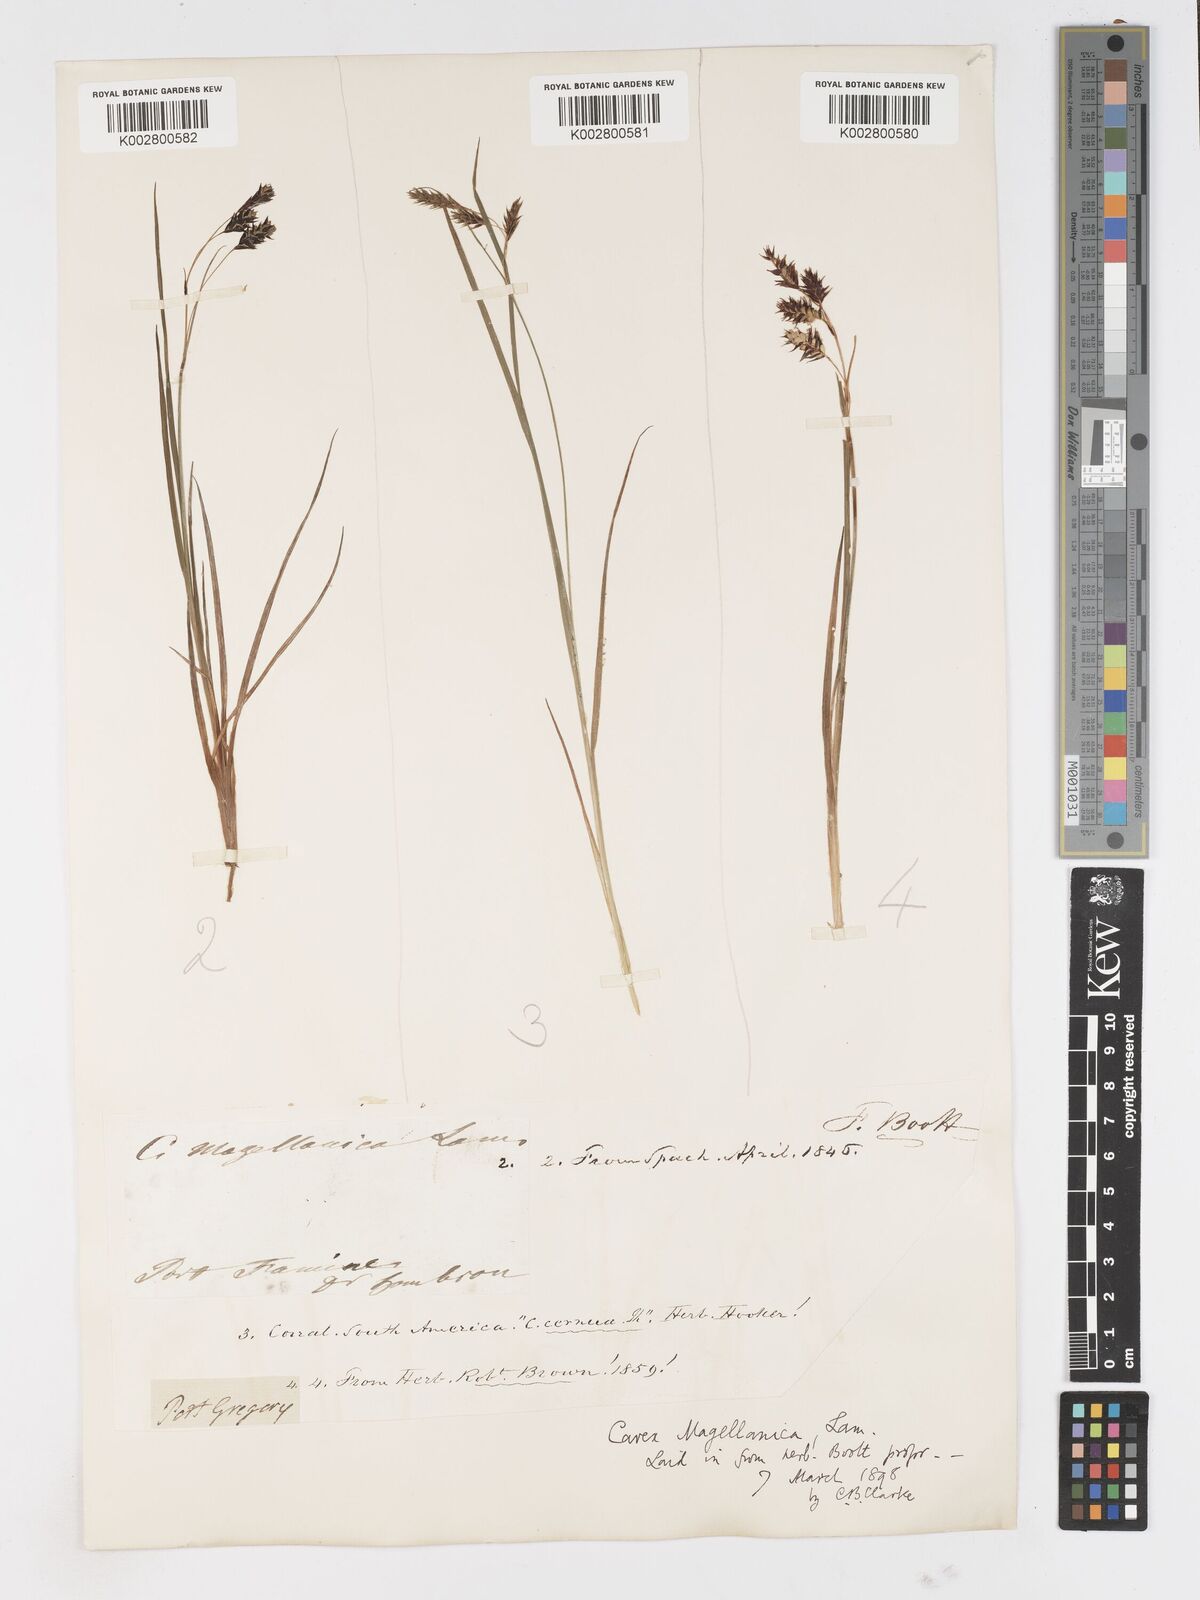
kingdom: Plantae
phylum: Tracheophyta
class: Liliopsida
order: Poales
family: Cyperaceae
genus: Carex
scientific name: Carex magellanica
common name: Bog sedge
